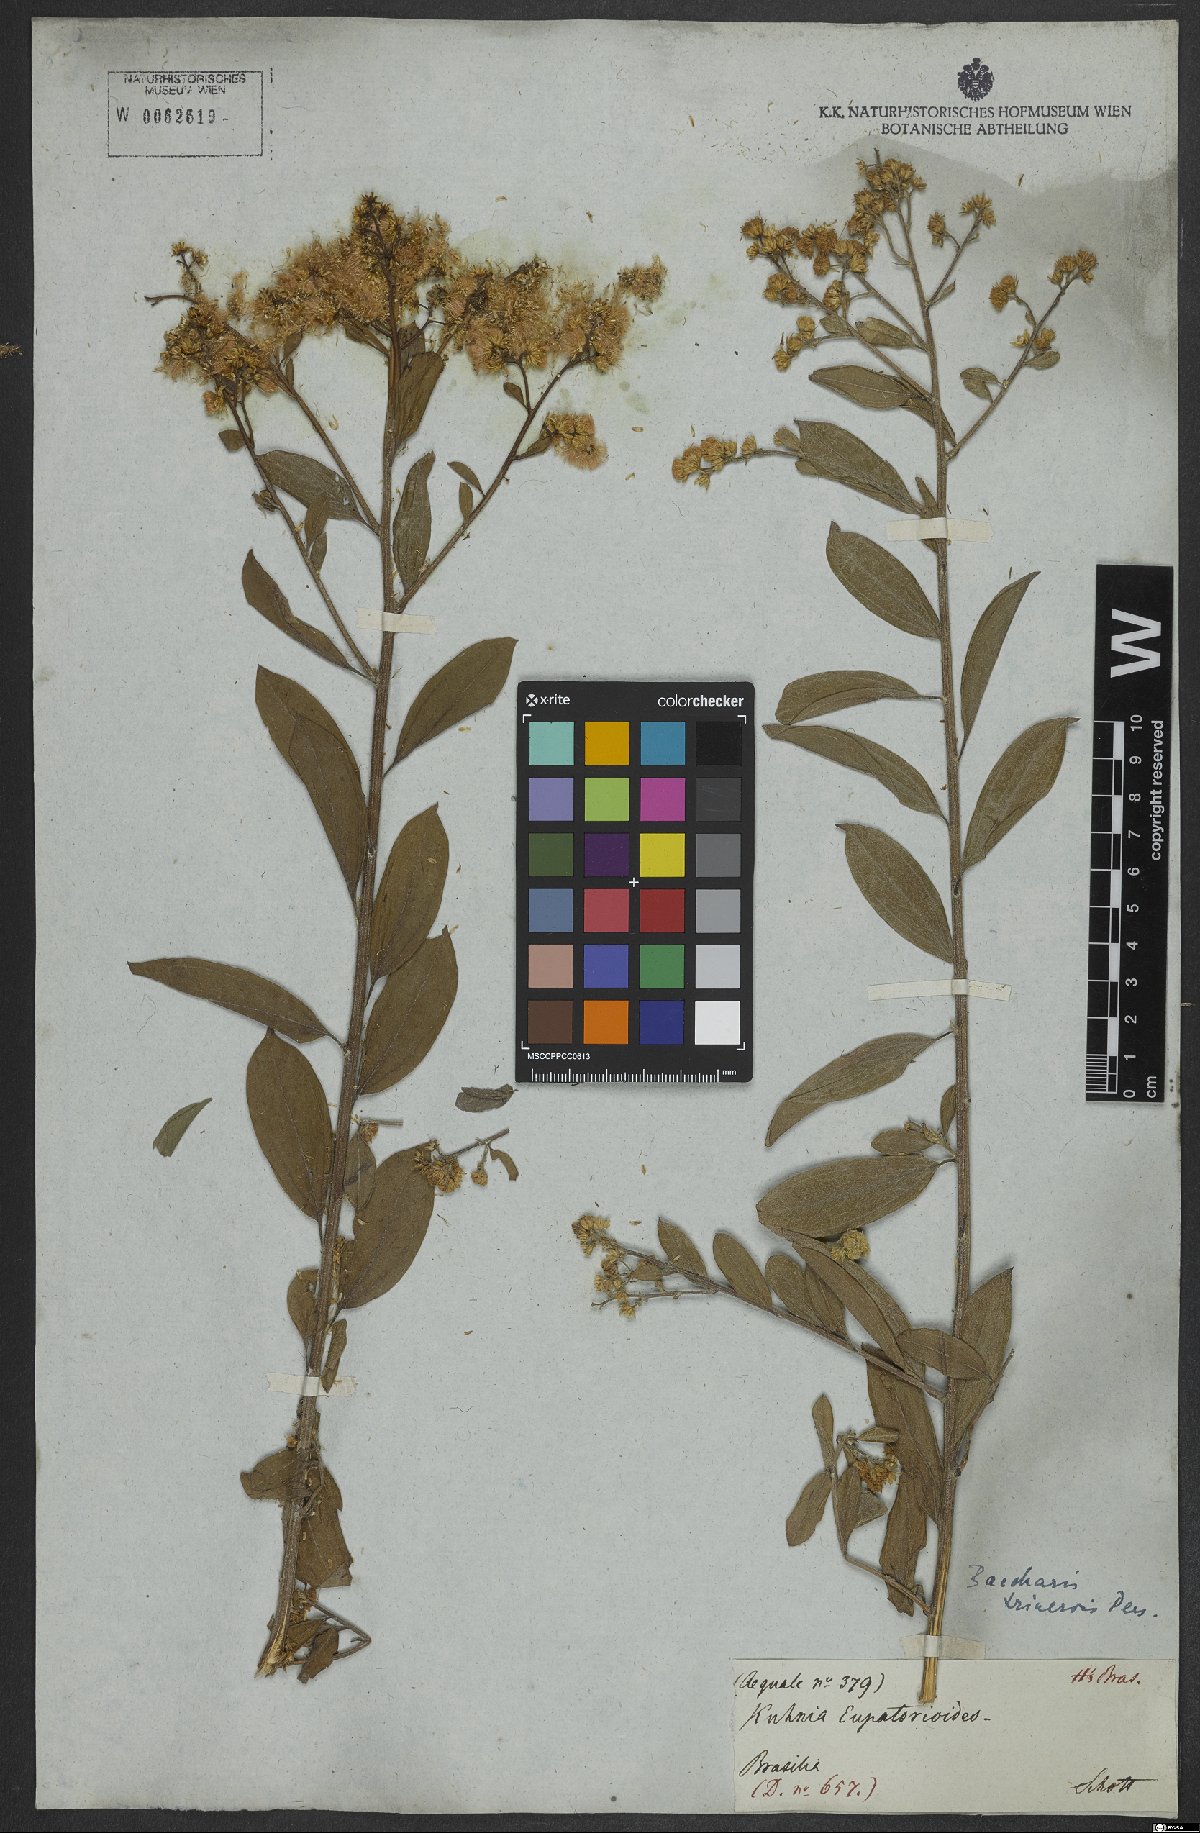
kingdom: Plantae
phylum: Tracheophyta
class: Magnoliopsida
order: Asterales
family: Asteraceae
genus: Baccharis
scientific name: Baccharis trinervis
